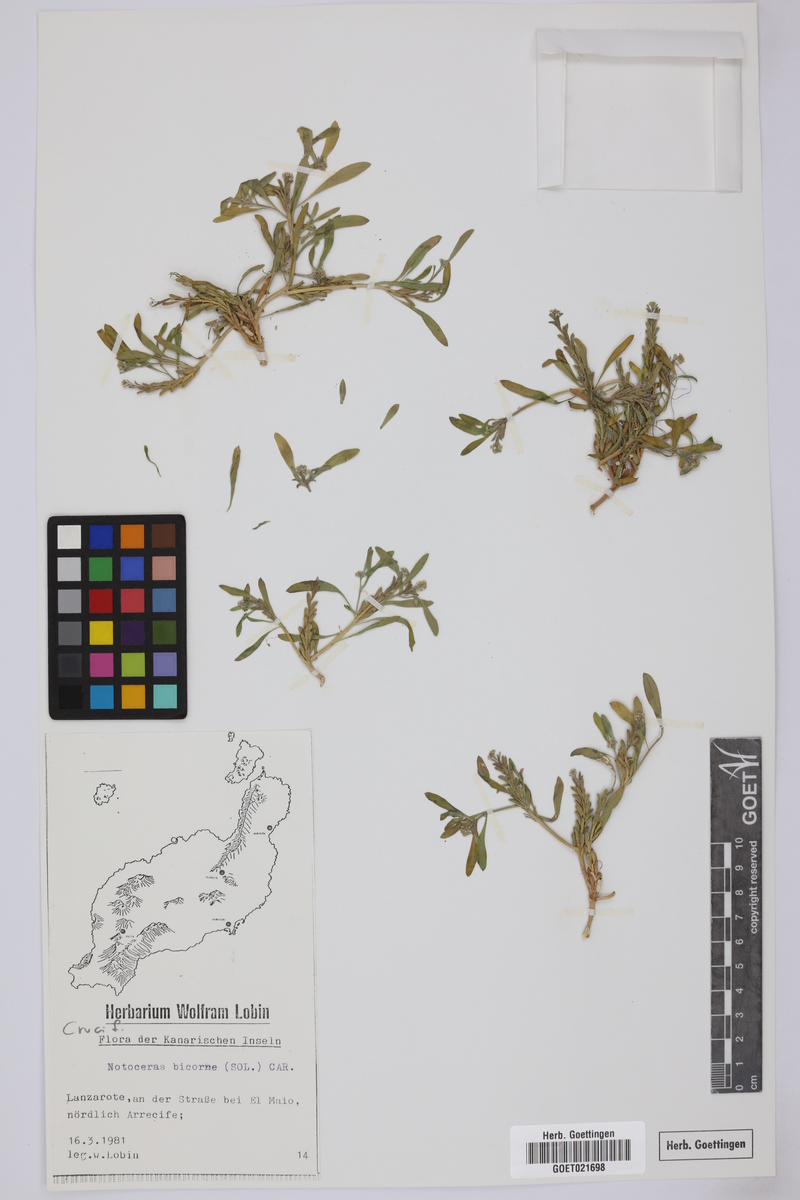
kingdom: Plantae
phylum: Tracheophyta
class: Magnoliopsida
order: Brassicales
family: Brassicaceae
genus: Notoceras
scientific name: Notoceras bicorne
